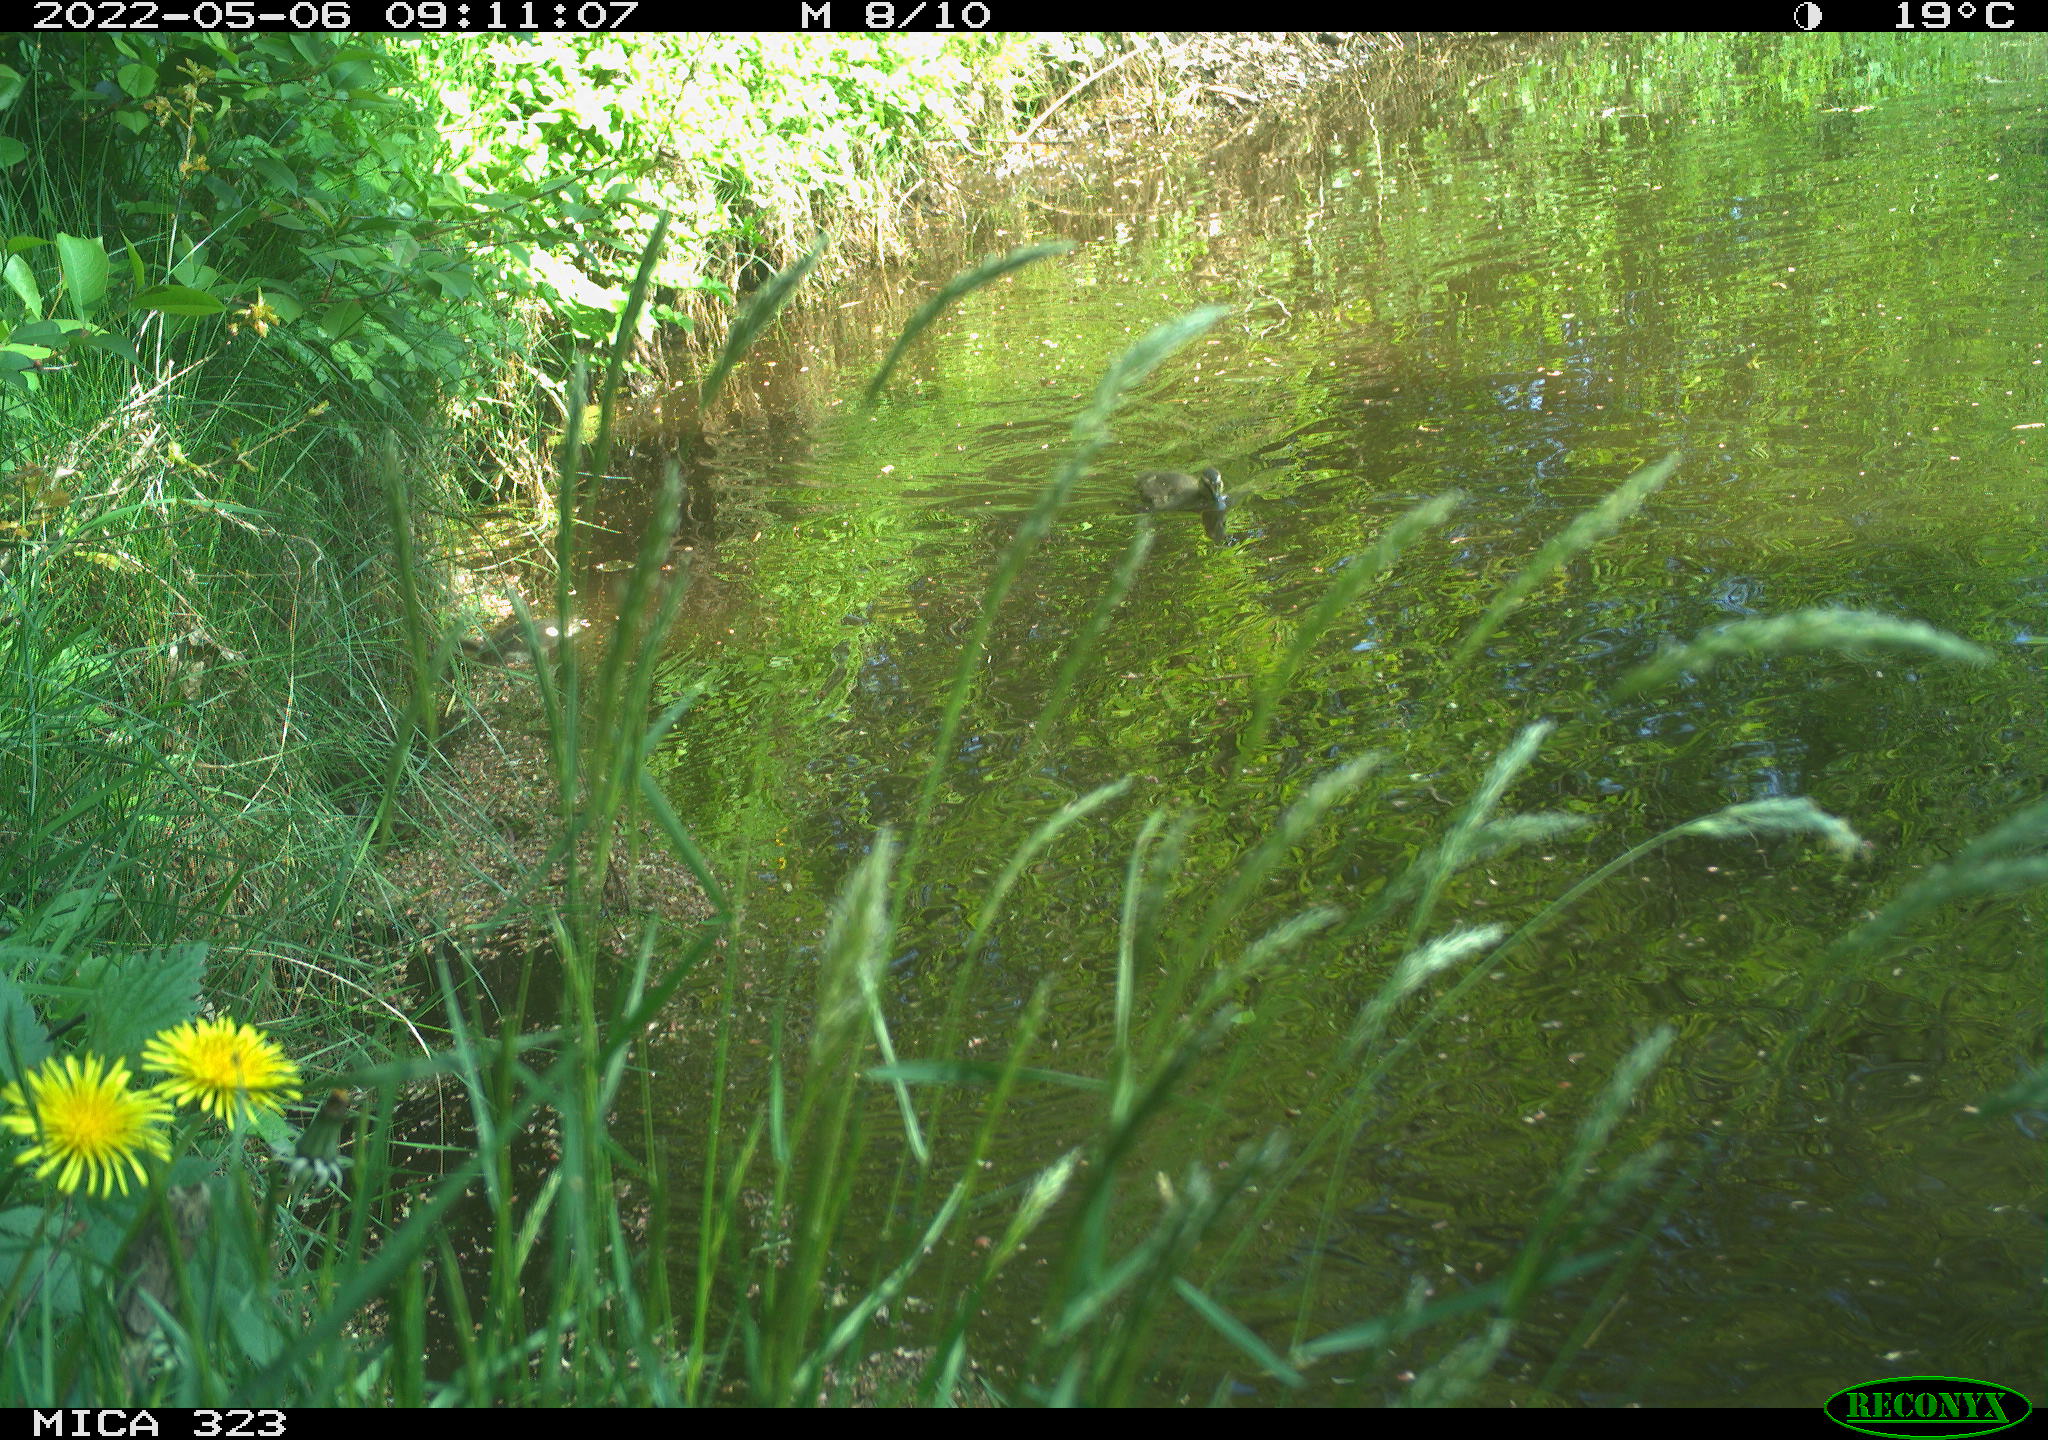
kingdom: Animalia
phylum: Chordata
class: Aves
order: Anseriformes
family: Anatidae
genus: Anas
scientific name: Anas
